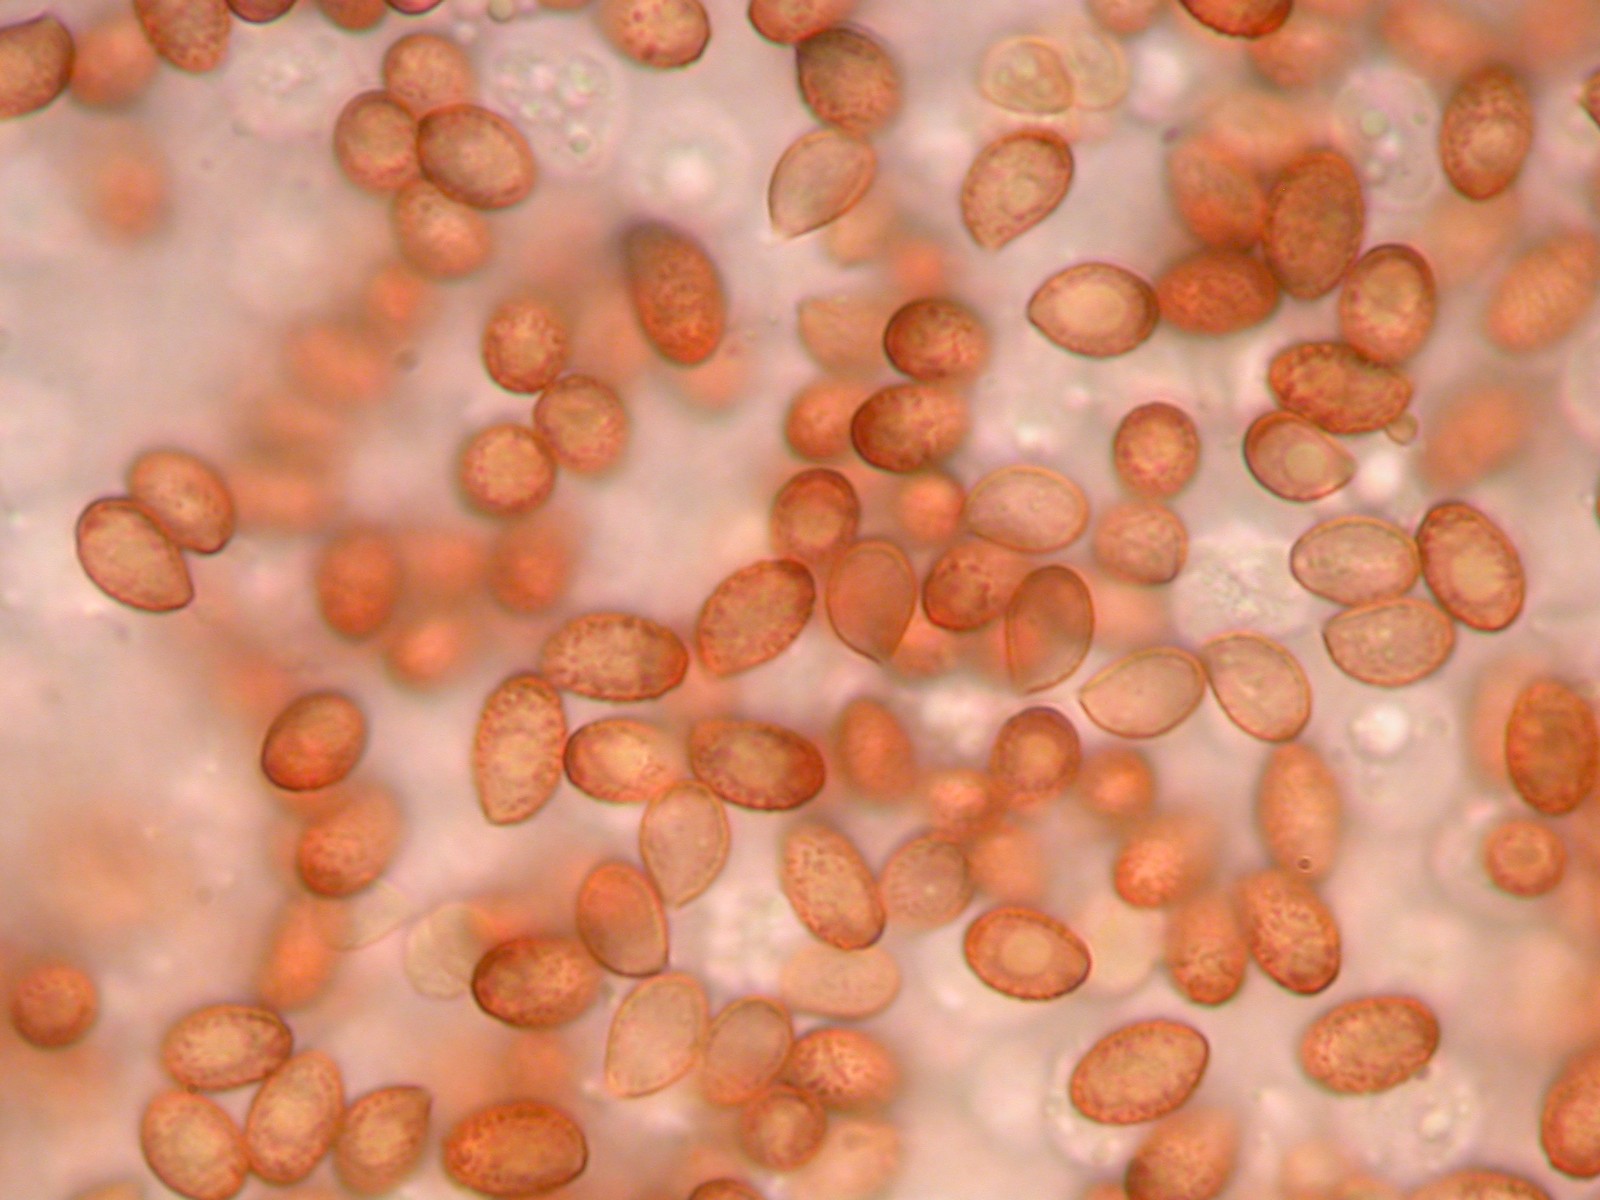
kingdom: Fungi
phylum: Basidiomycota
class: Agaricomycetes
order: Agaricales
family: Cortinariaceae
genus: Cortinarius
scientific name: Cortinarius acutispissipes
